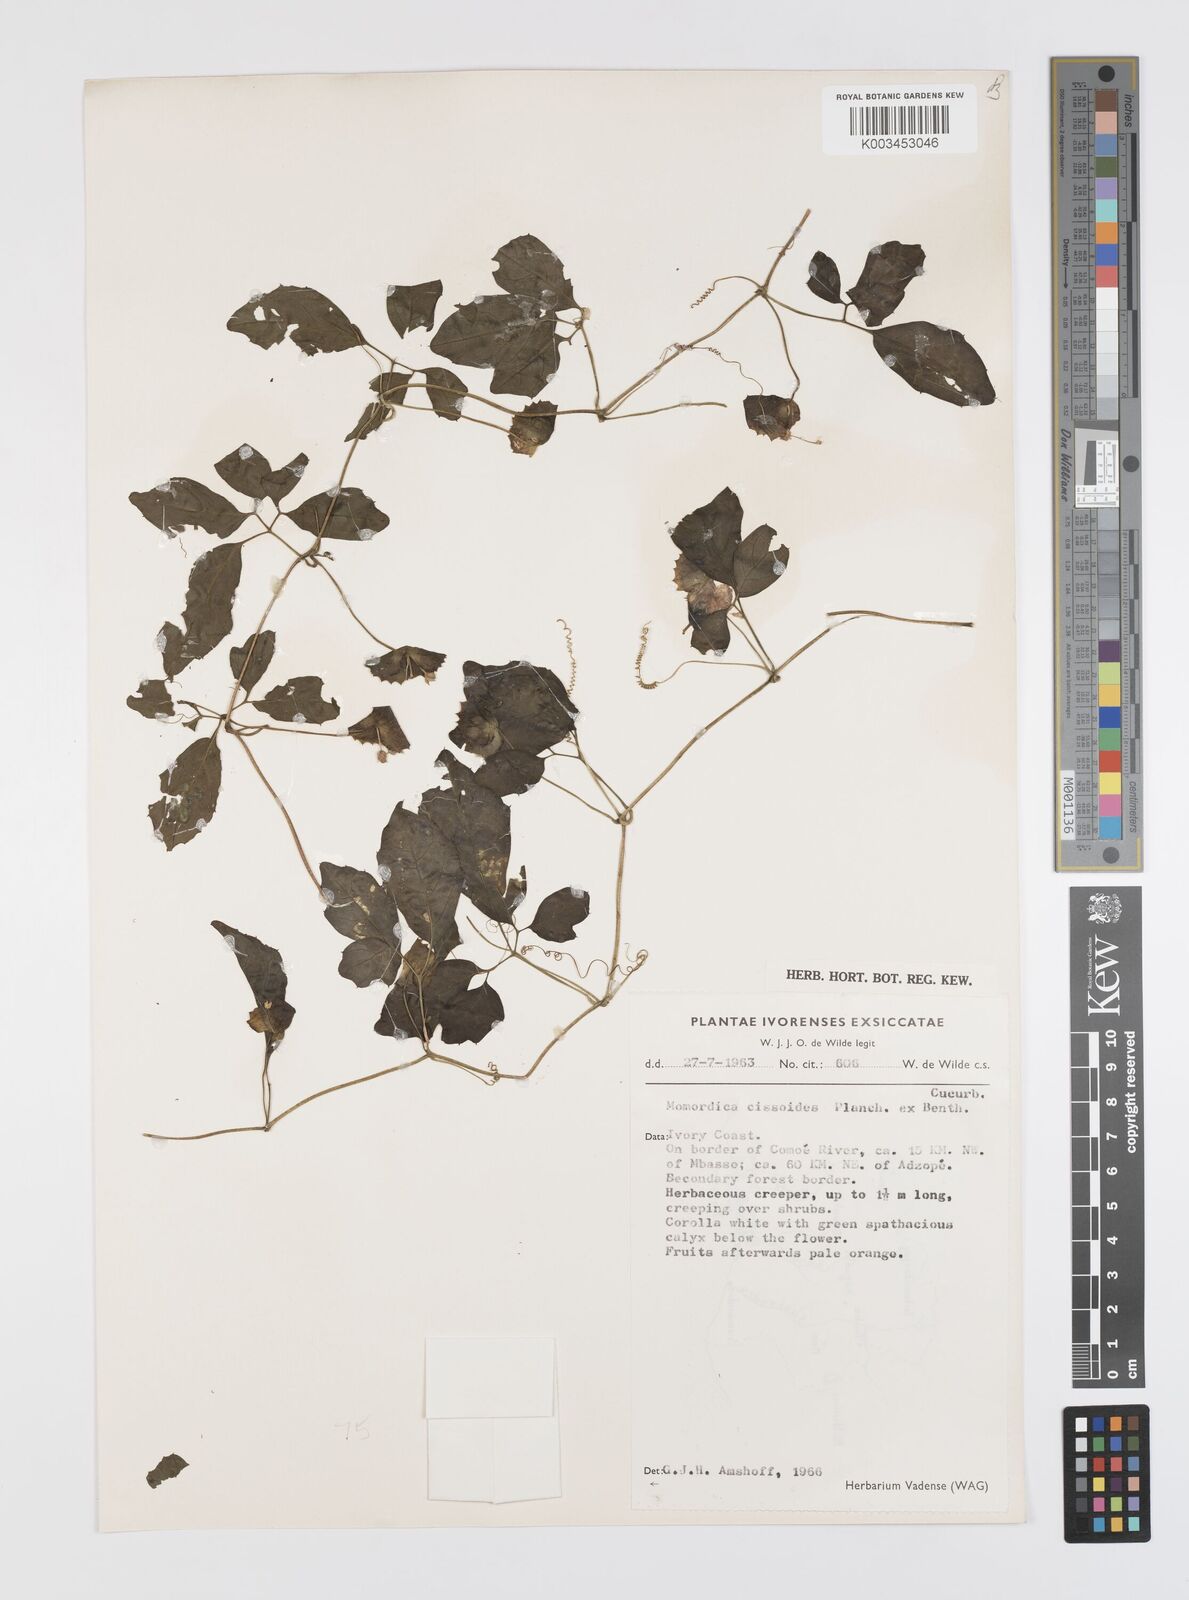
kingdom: Plantae
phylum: Tracheophyta
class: Magnoliopsida
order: Cucurbitales
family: Cucurbitaceae
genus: Momordica
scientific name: Momordica cissoides
